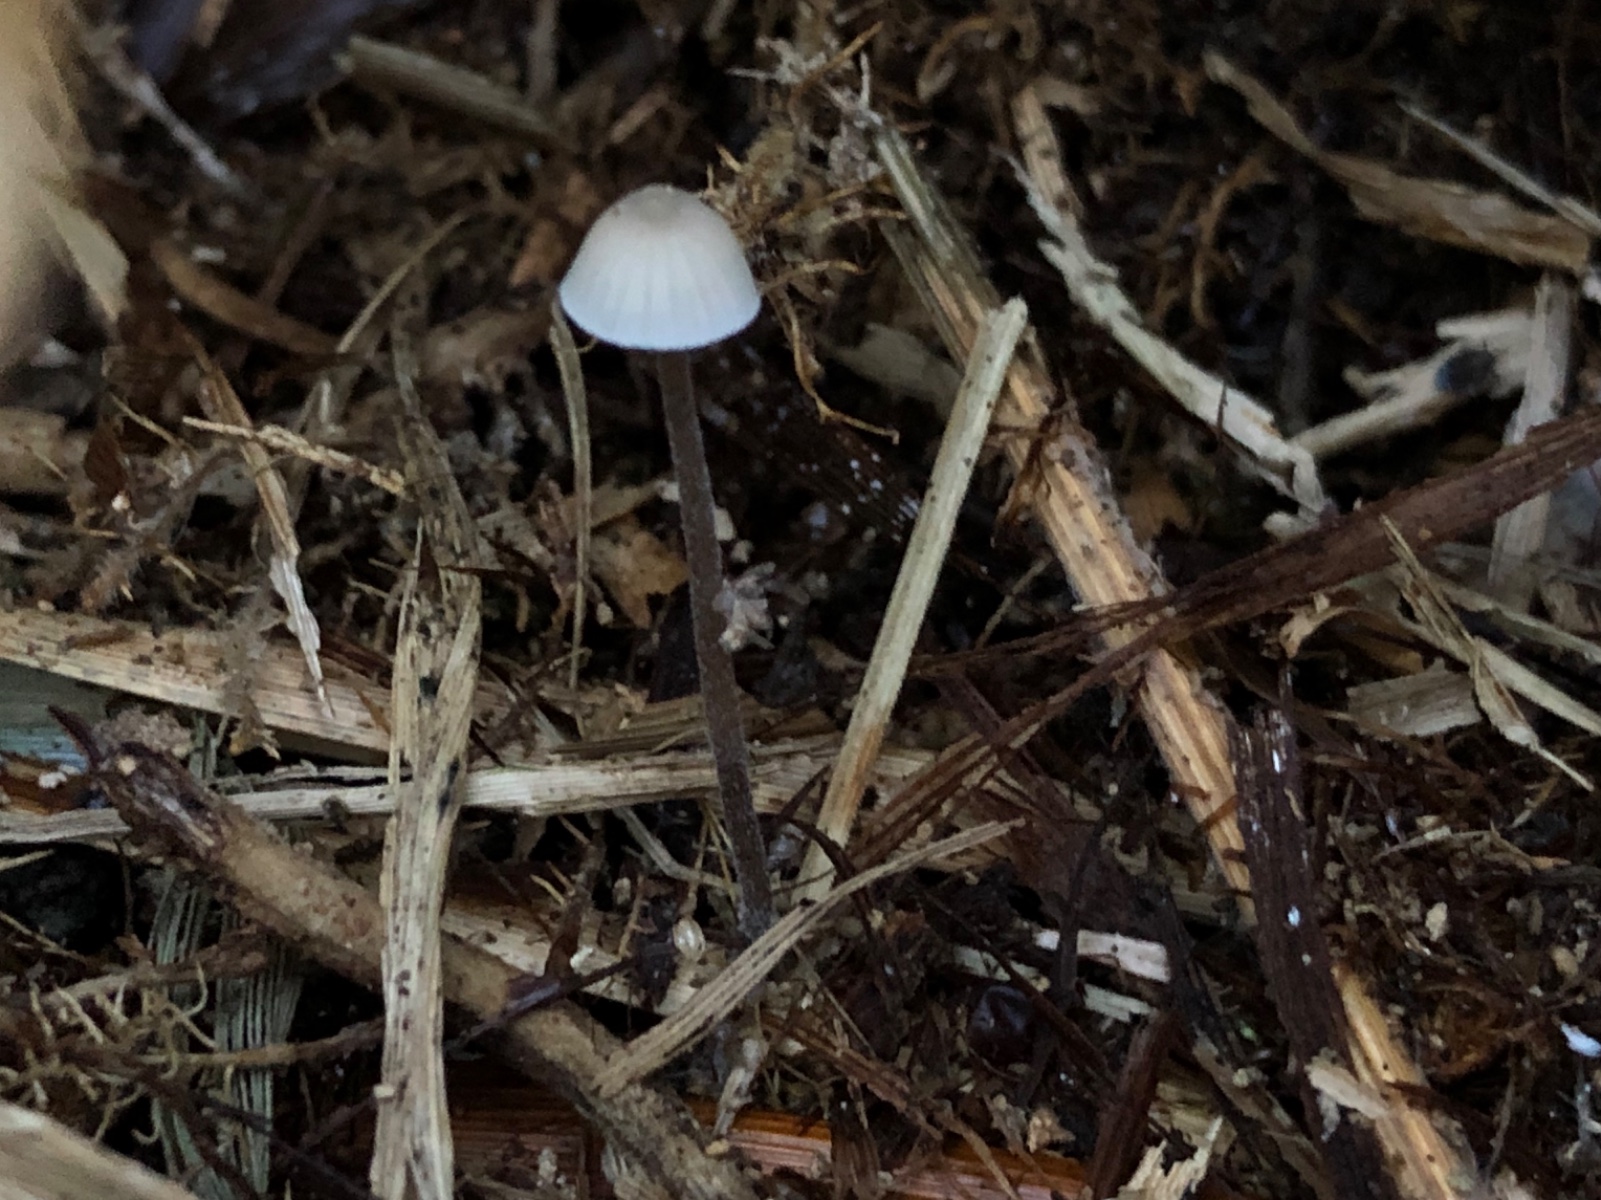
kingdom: Fungi
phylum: Basidiomycota
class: Agaricomycetes
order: Agaricales
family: Mycenaceae
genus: Mycena
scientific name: Mycena scirpicola
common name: flagelhåret huesvamp
